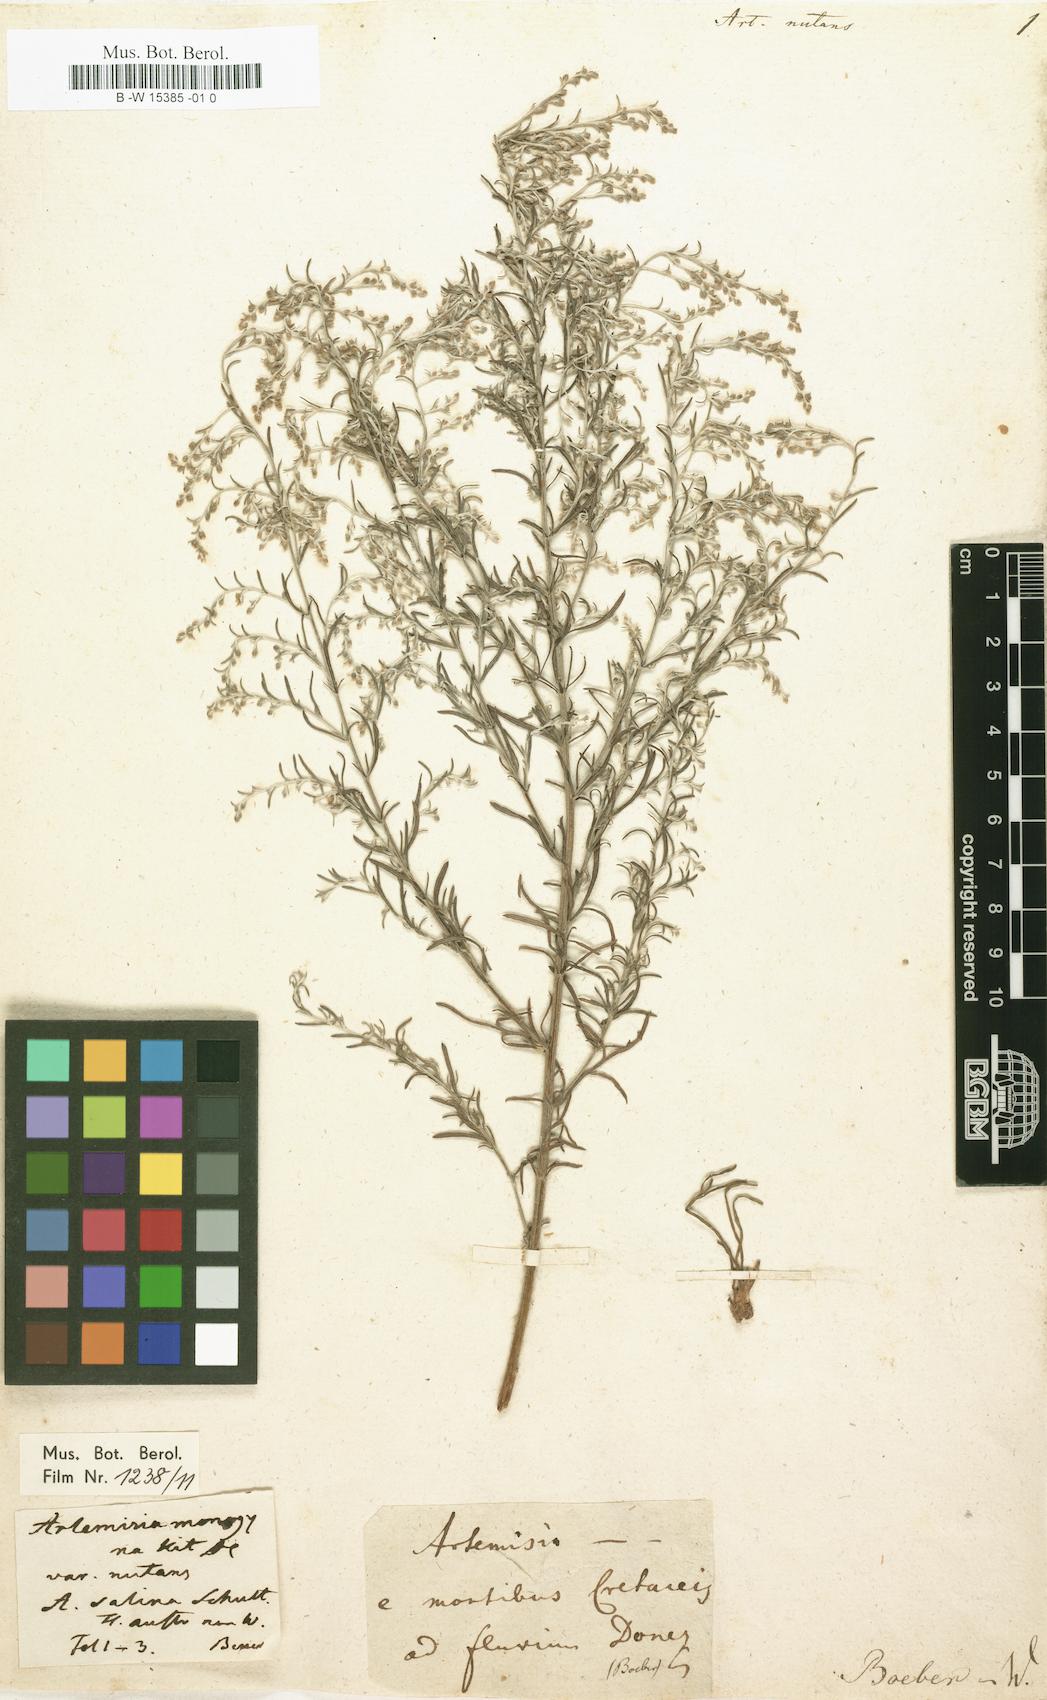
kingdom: Plantae
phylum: Tracheophyta
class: Magnoliopsida
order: Asterales
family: Asteraceae
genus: Artemisia
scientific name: Artemisia nutans
